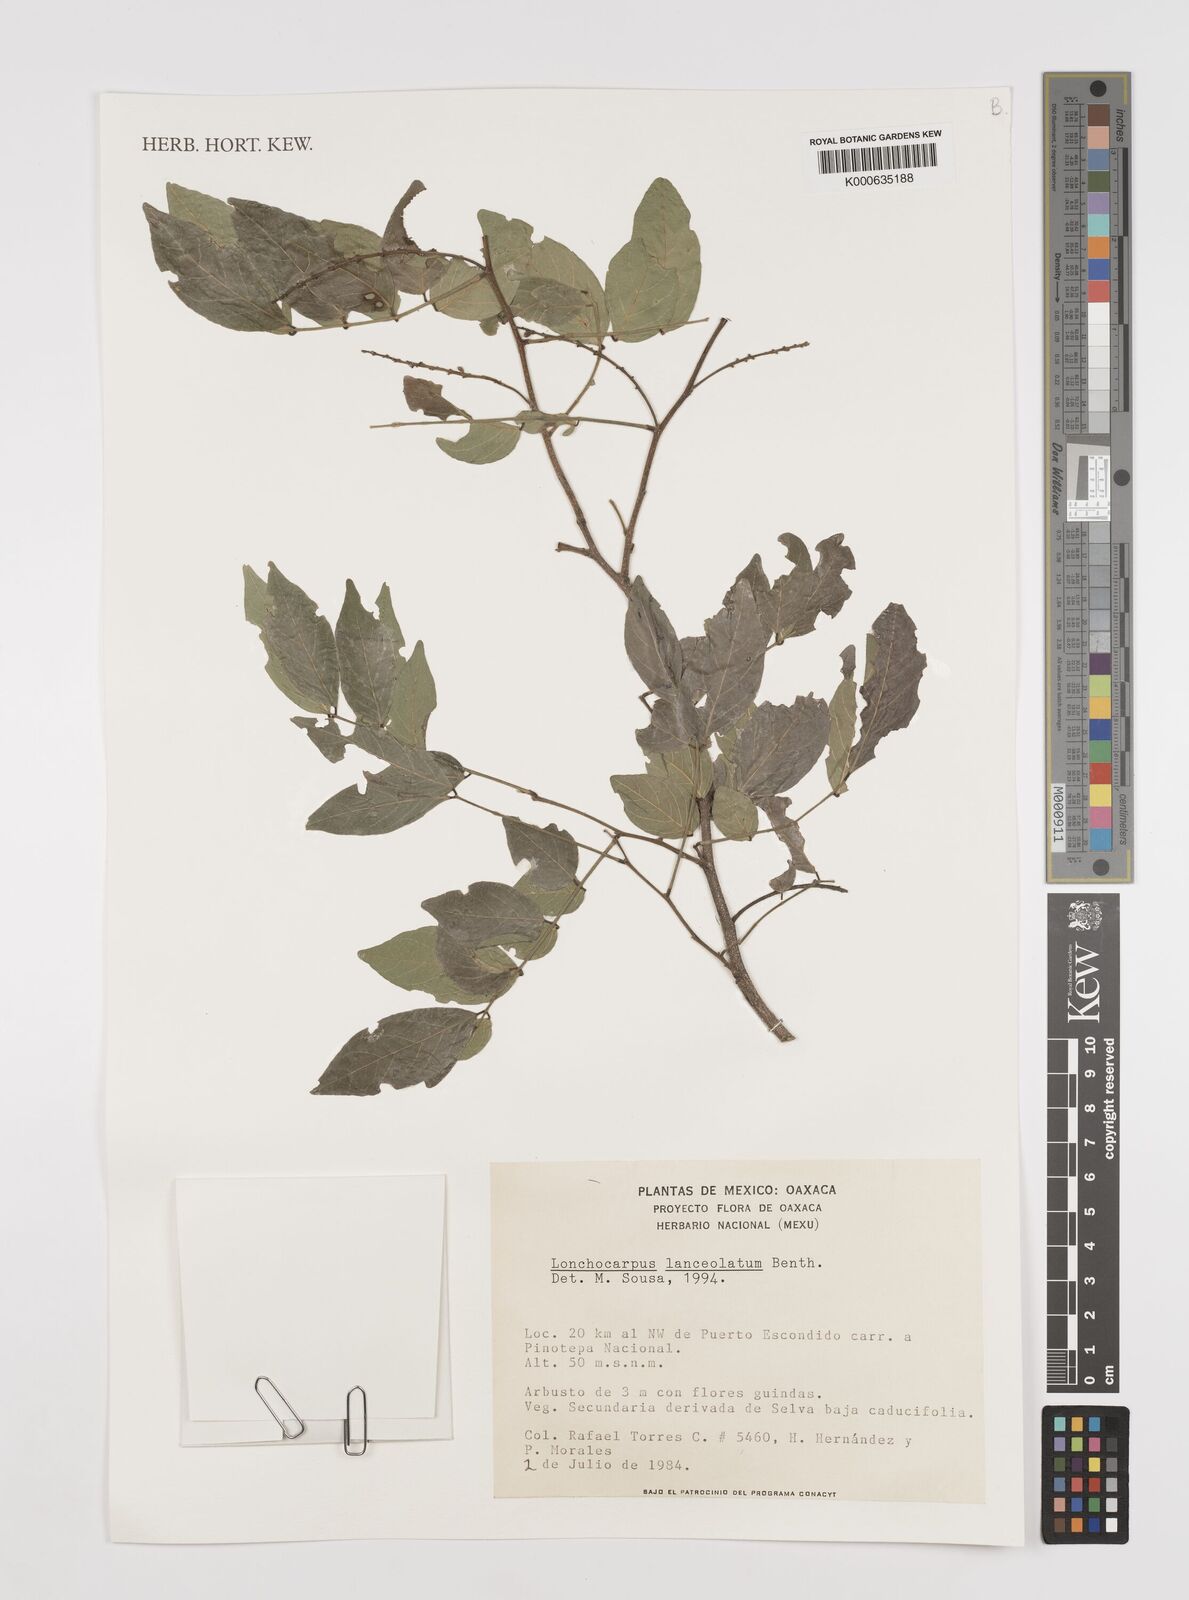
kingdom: Plantae
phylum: Tracheophyta
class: Magnoliopsida
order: Fabales
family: Fabaceae
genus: Lonchocarpus
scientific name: Lonchocarpus lanceolatus
